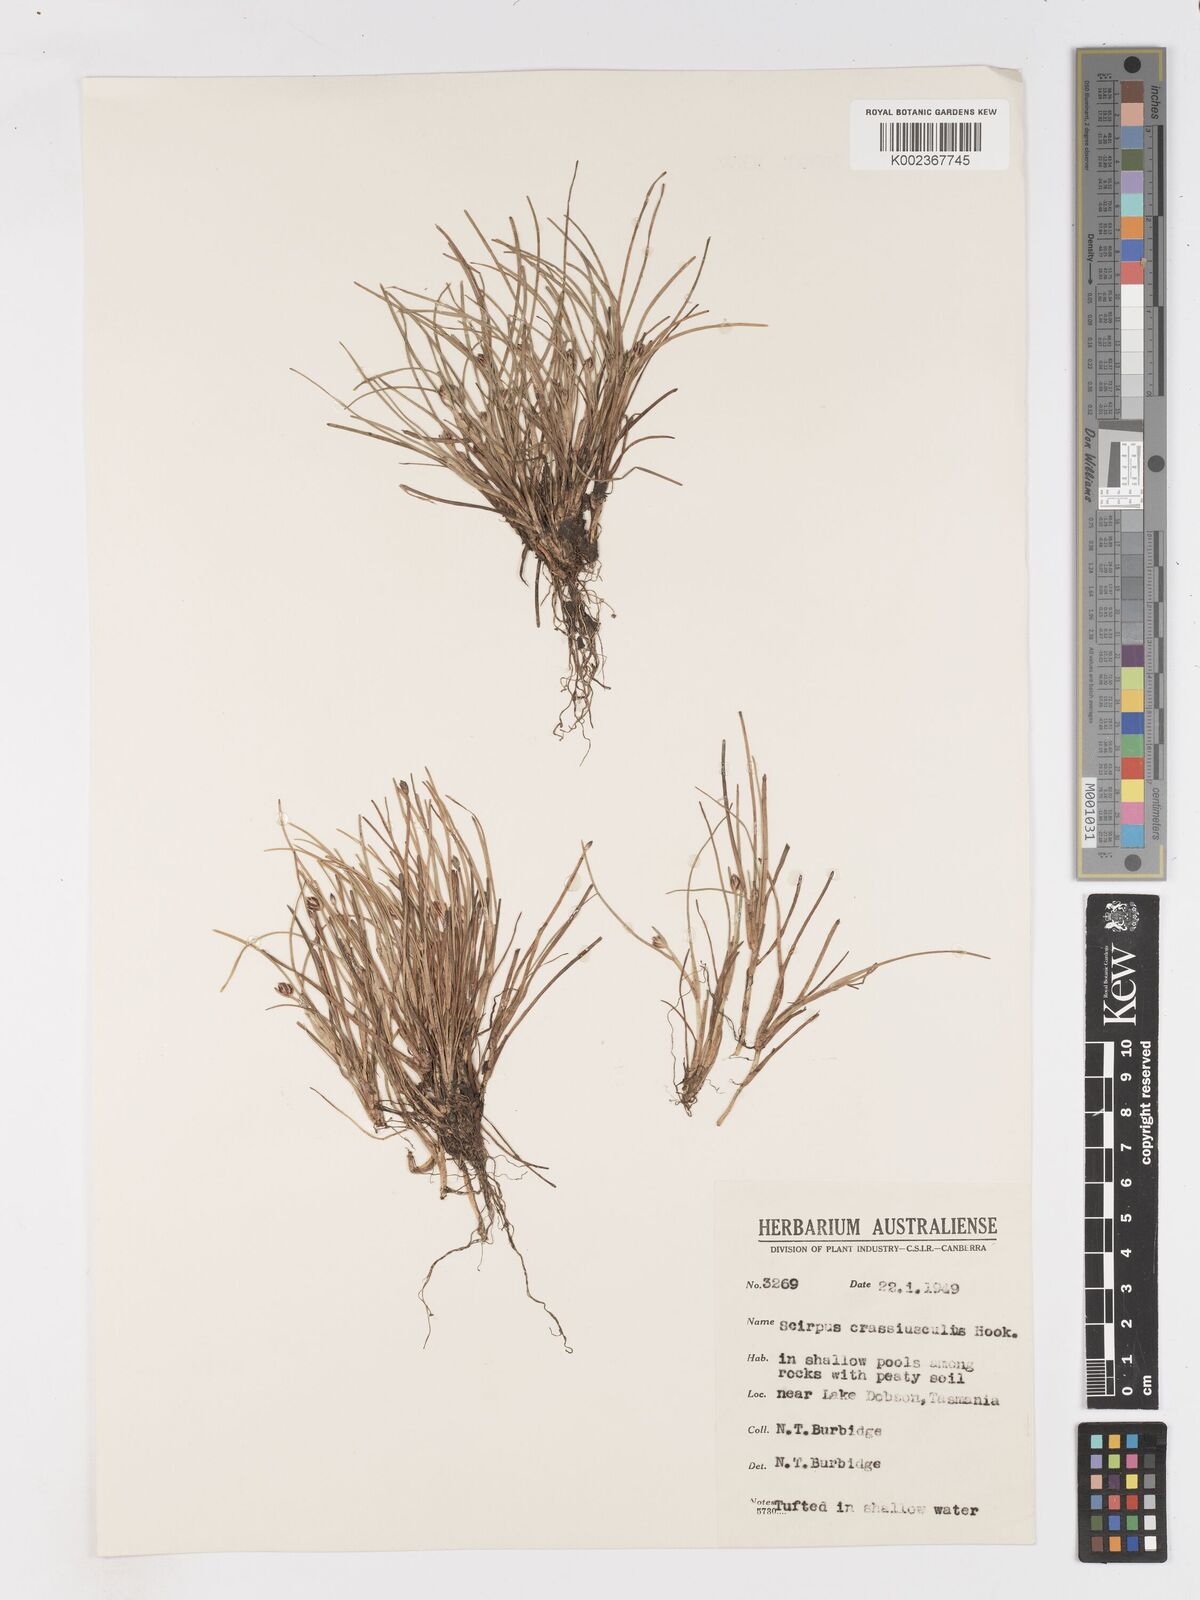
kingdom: Plantae
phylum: Tracheophyta
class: Liliopsida
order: Poales
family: Cyperaceae
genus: Isolepis
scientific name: Isolepis crassiuscula
